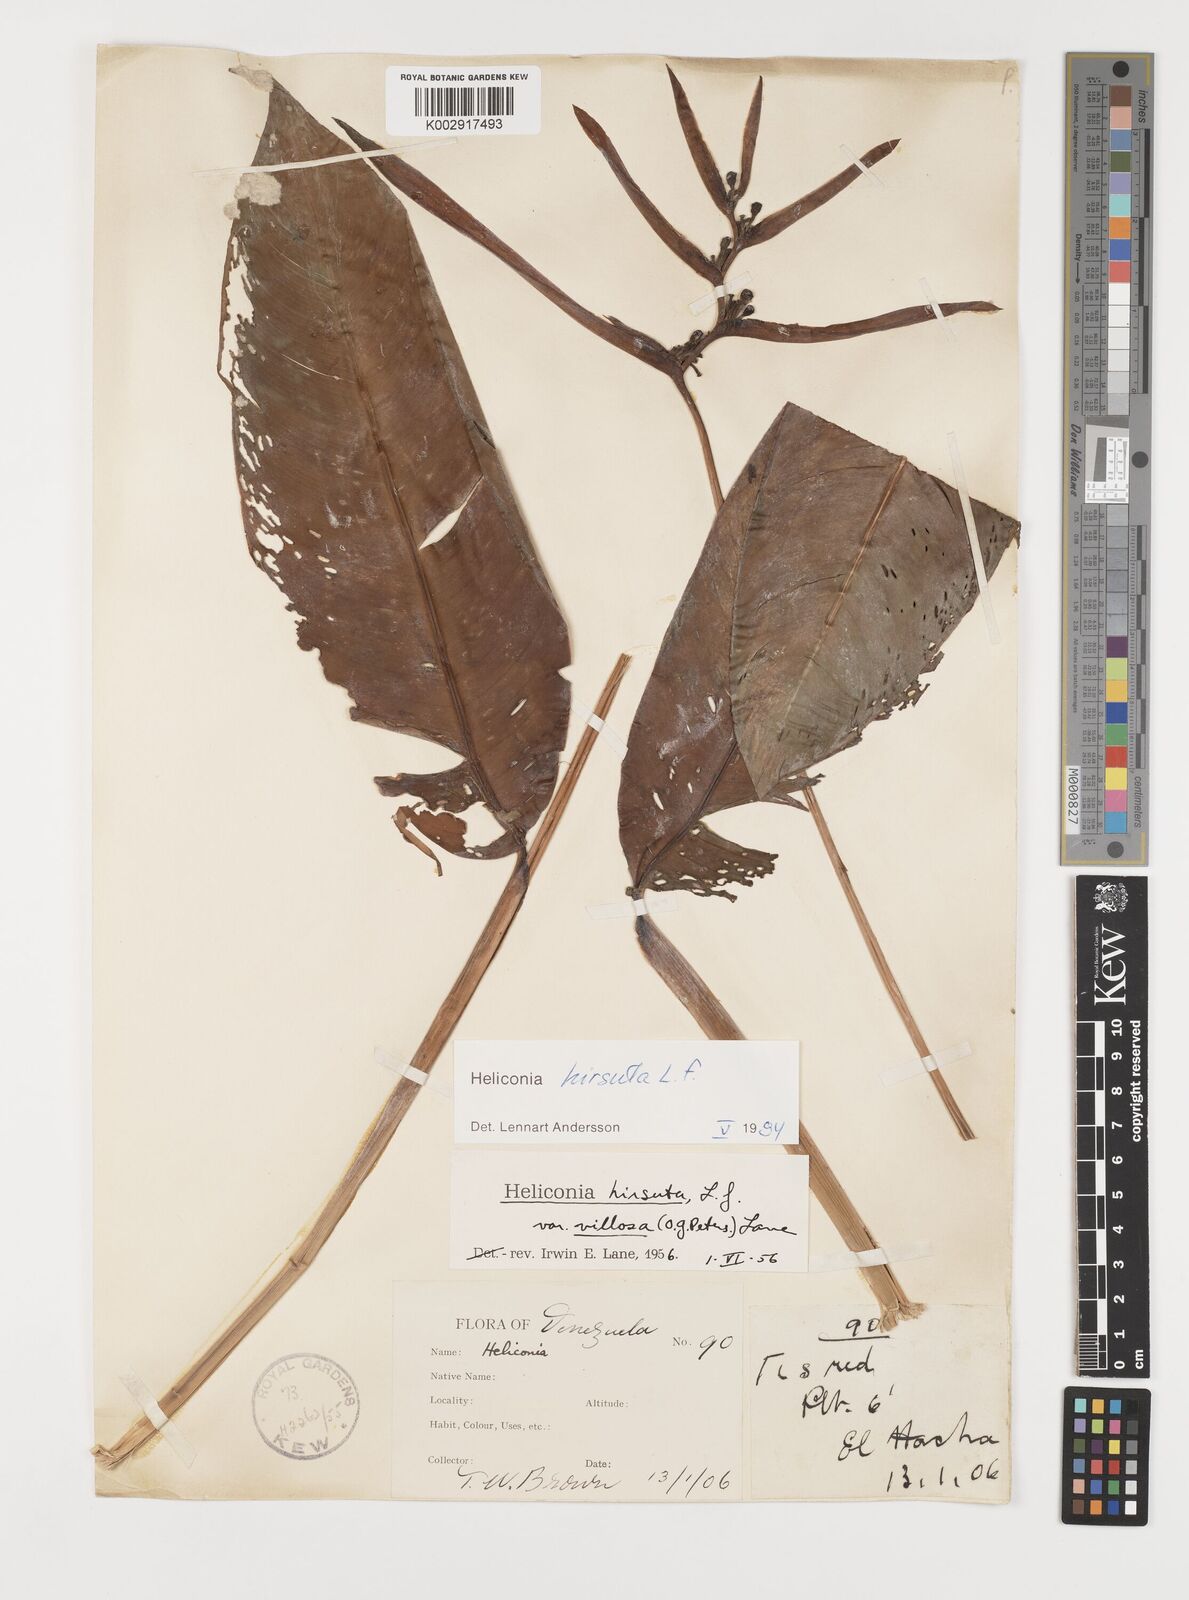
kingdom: Plantae
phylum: Tracheophyta
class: Liliopsida
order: Zingiberales
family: Heliconiaceae
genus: Heliconia
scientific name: Heliconia hirsuta
